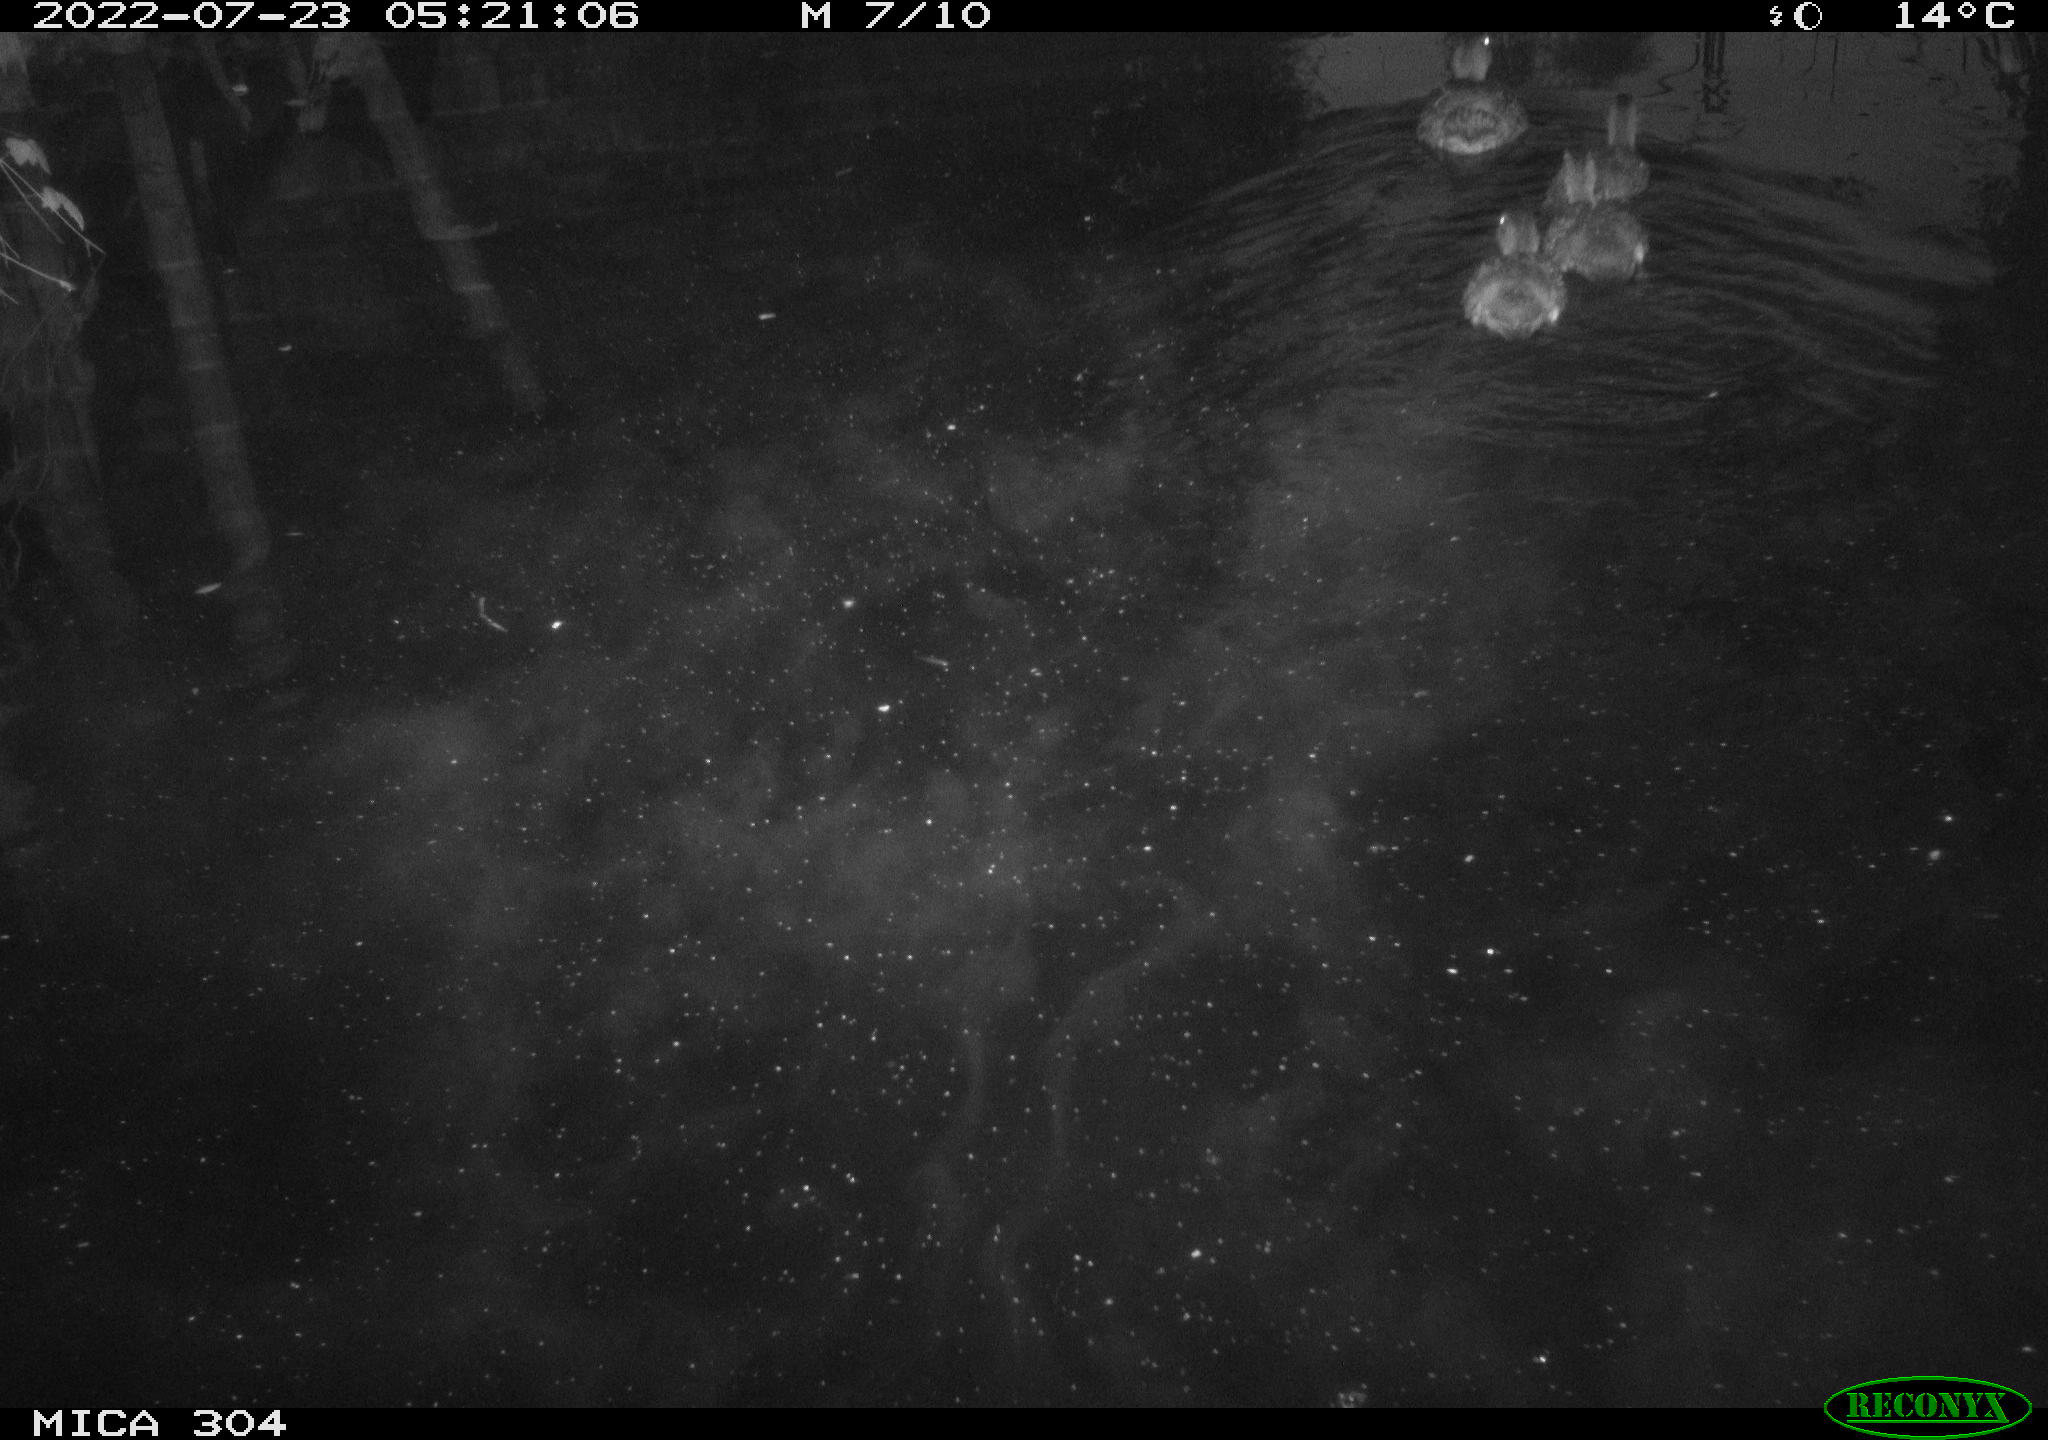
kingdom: Animalia
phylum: Chordata
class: Aves
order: Anseriformes
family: Anatidae
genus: Anas
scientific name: Anas platyrhynchos
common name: Mallard
